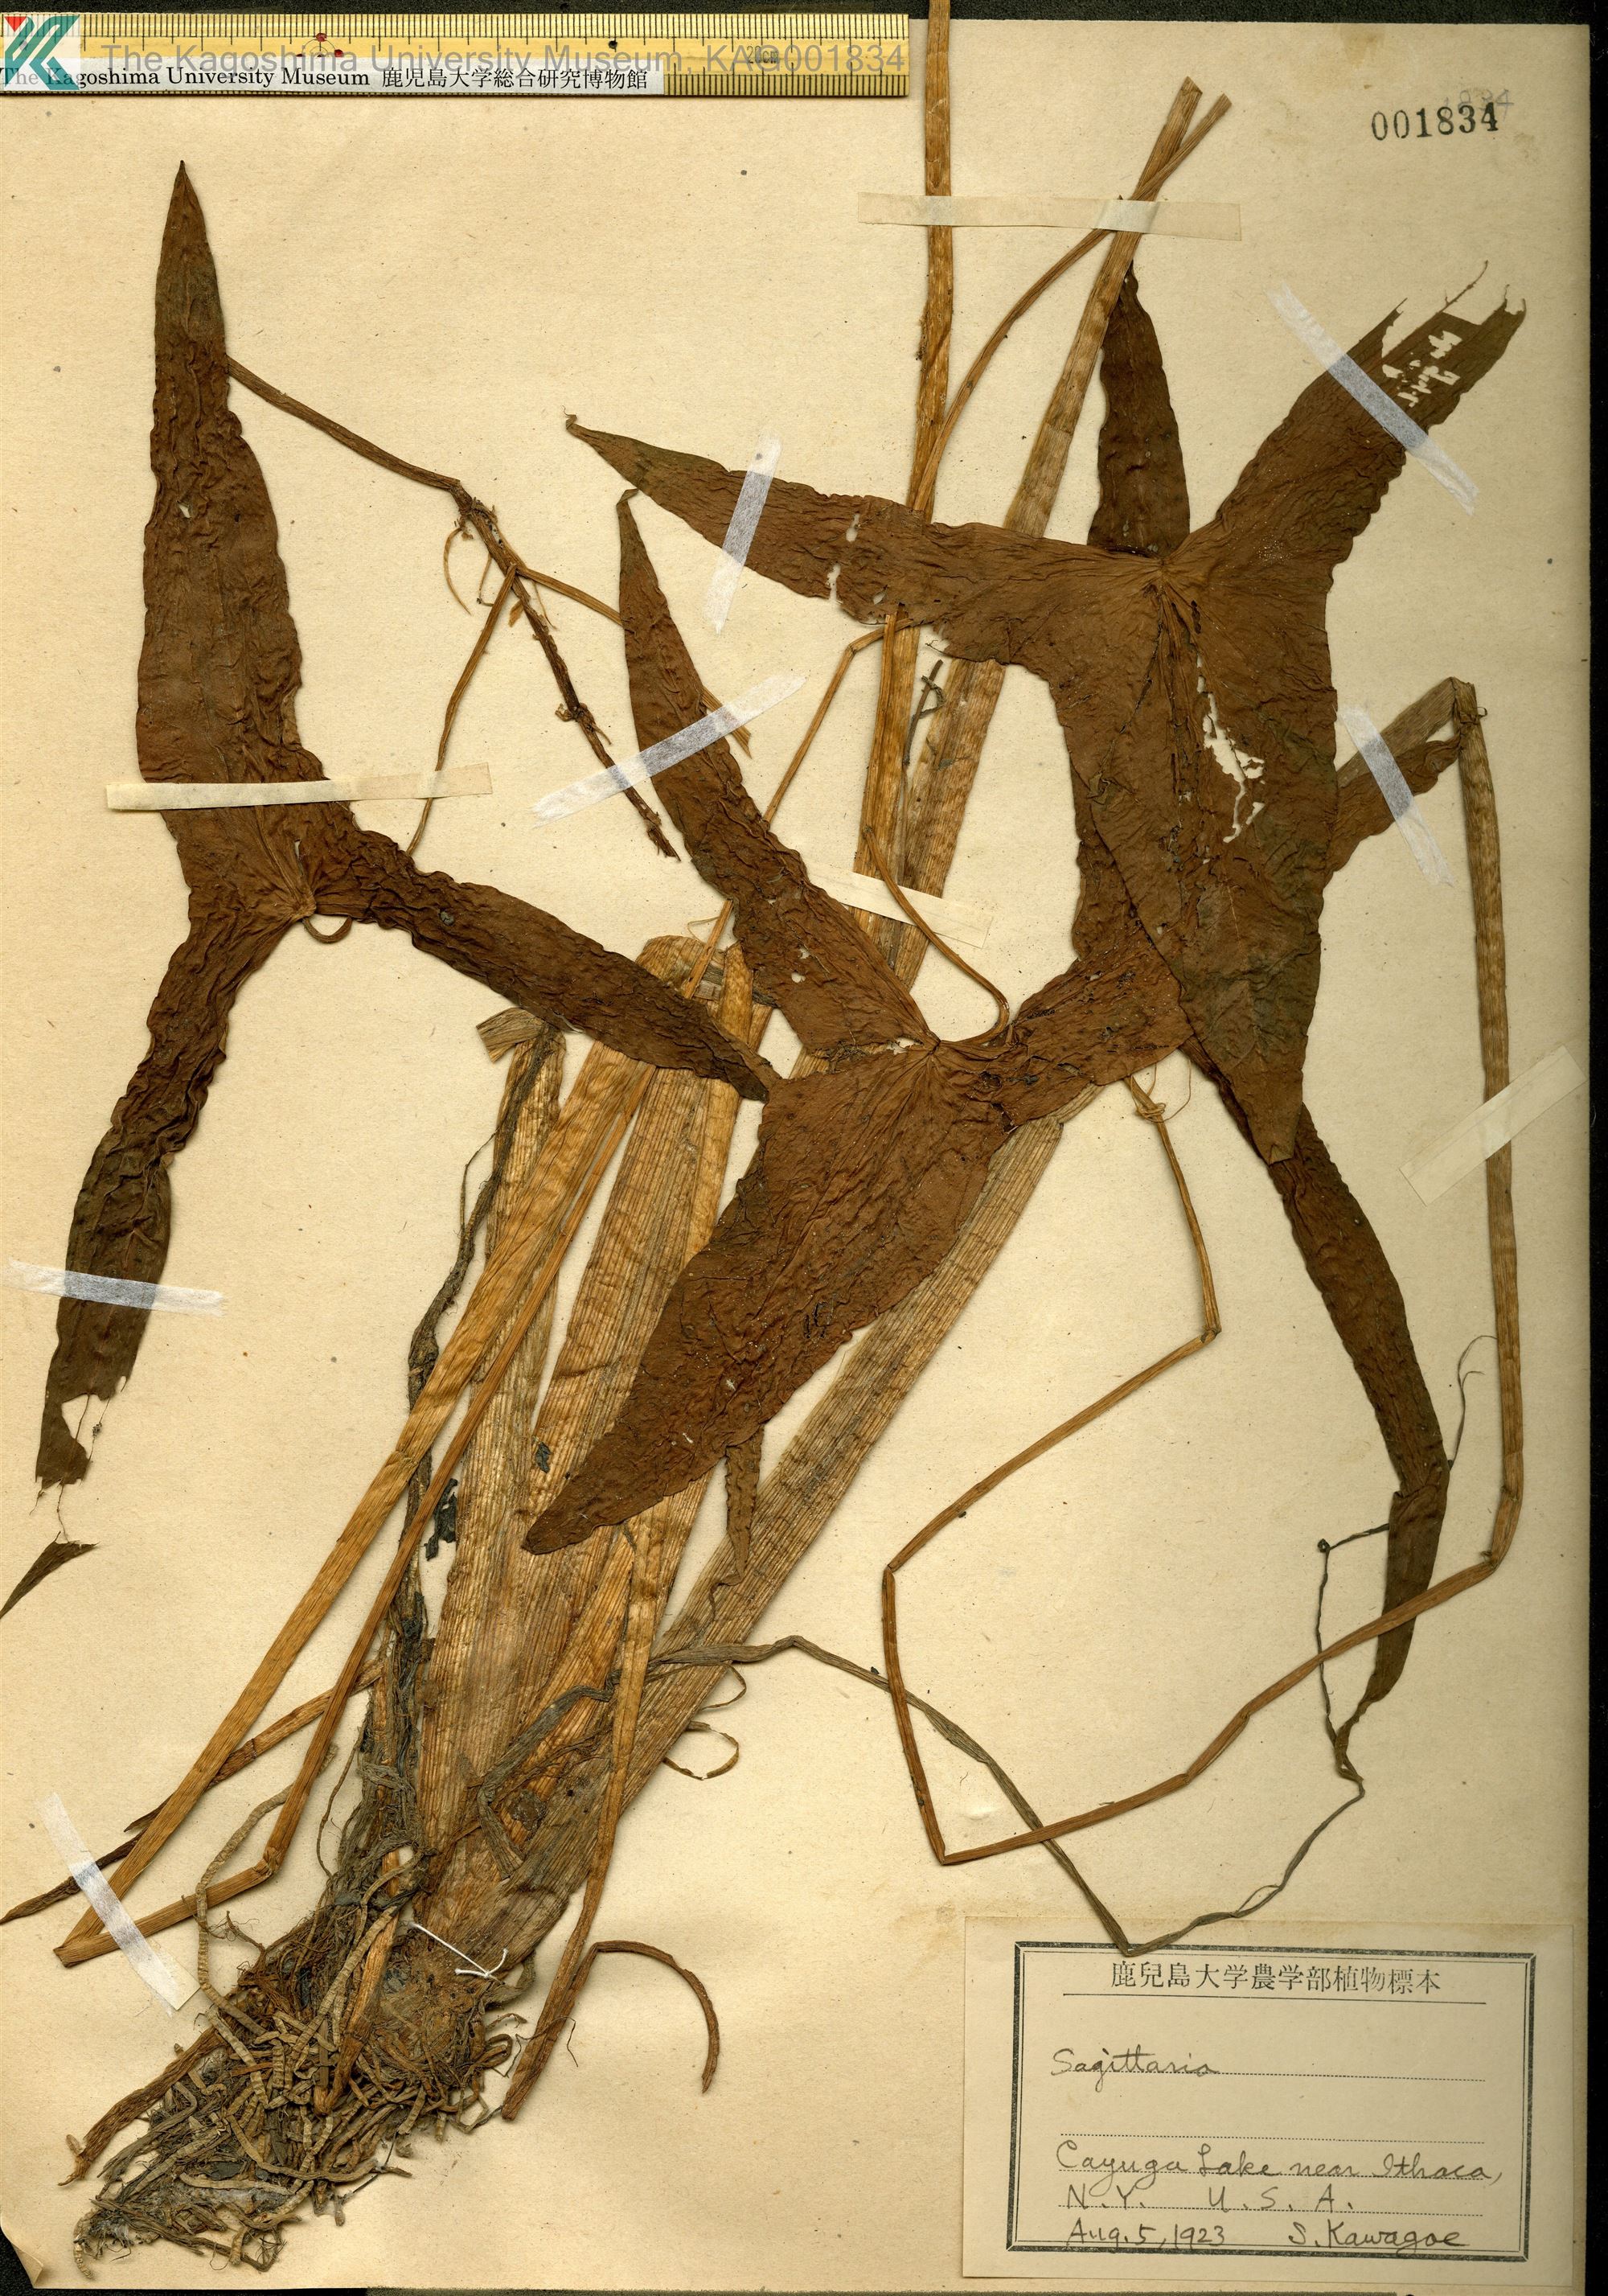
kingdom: Plantae
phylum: Tracheophyta
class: Liliopsida
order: Alismatales
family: Alismataceae
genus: Sagittaria
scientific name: Sagittaria
